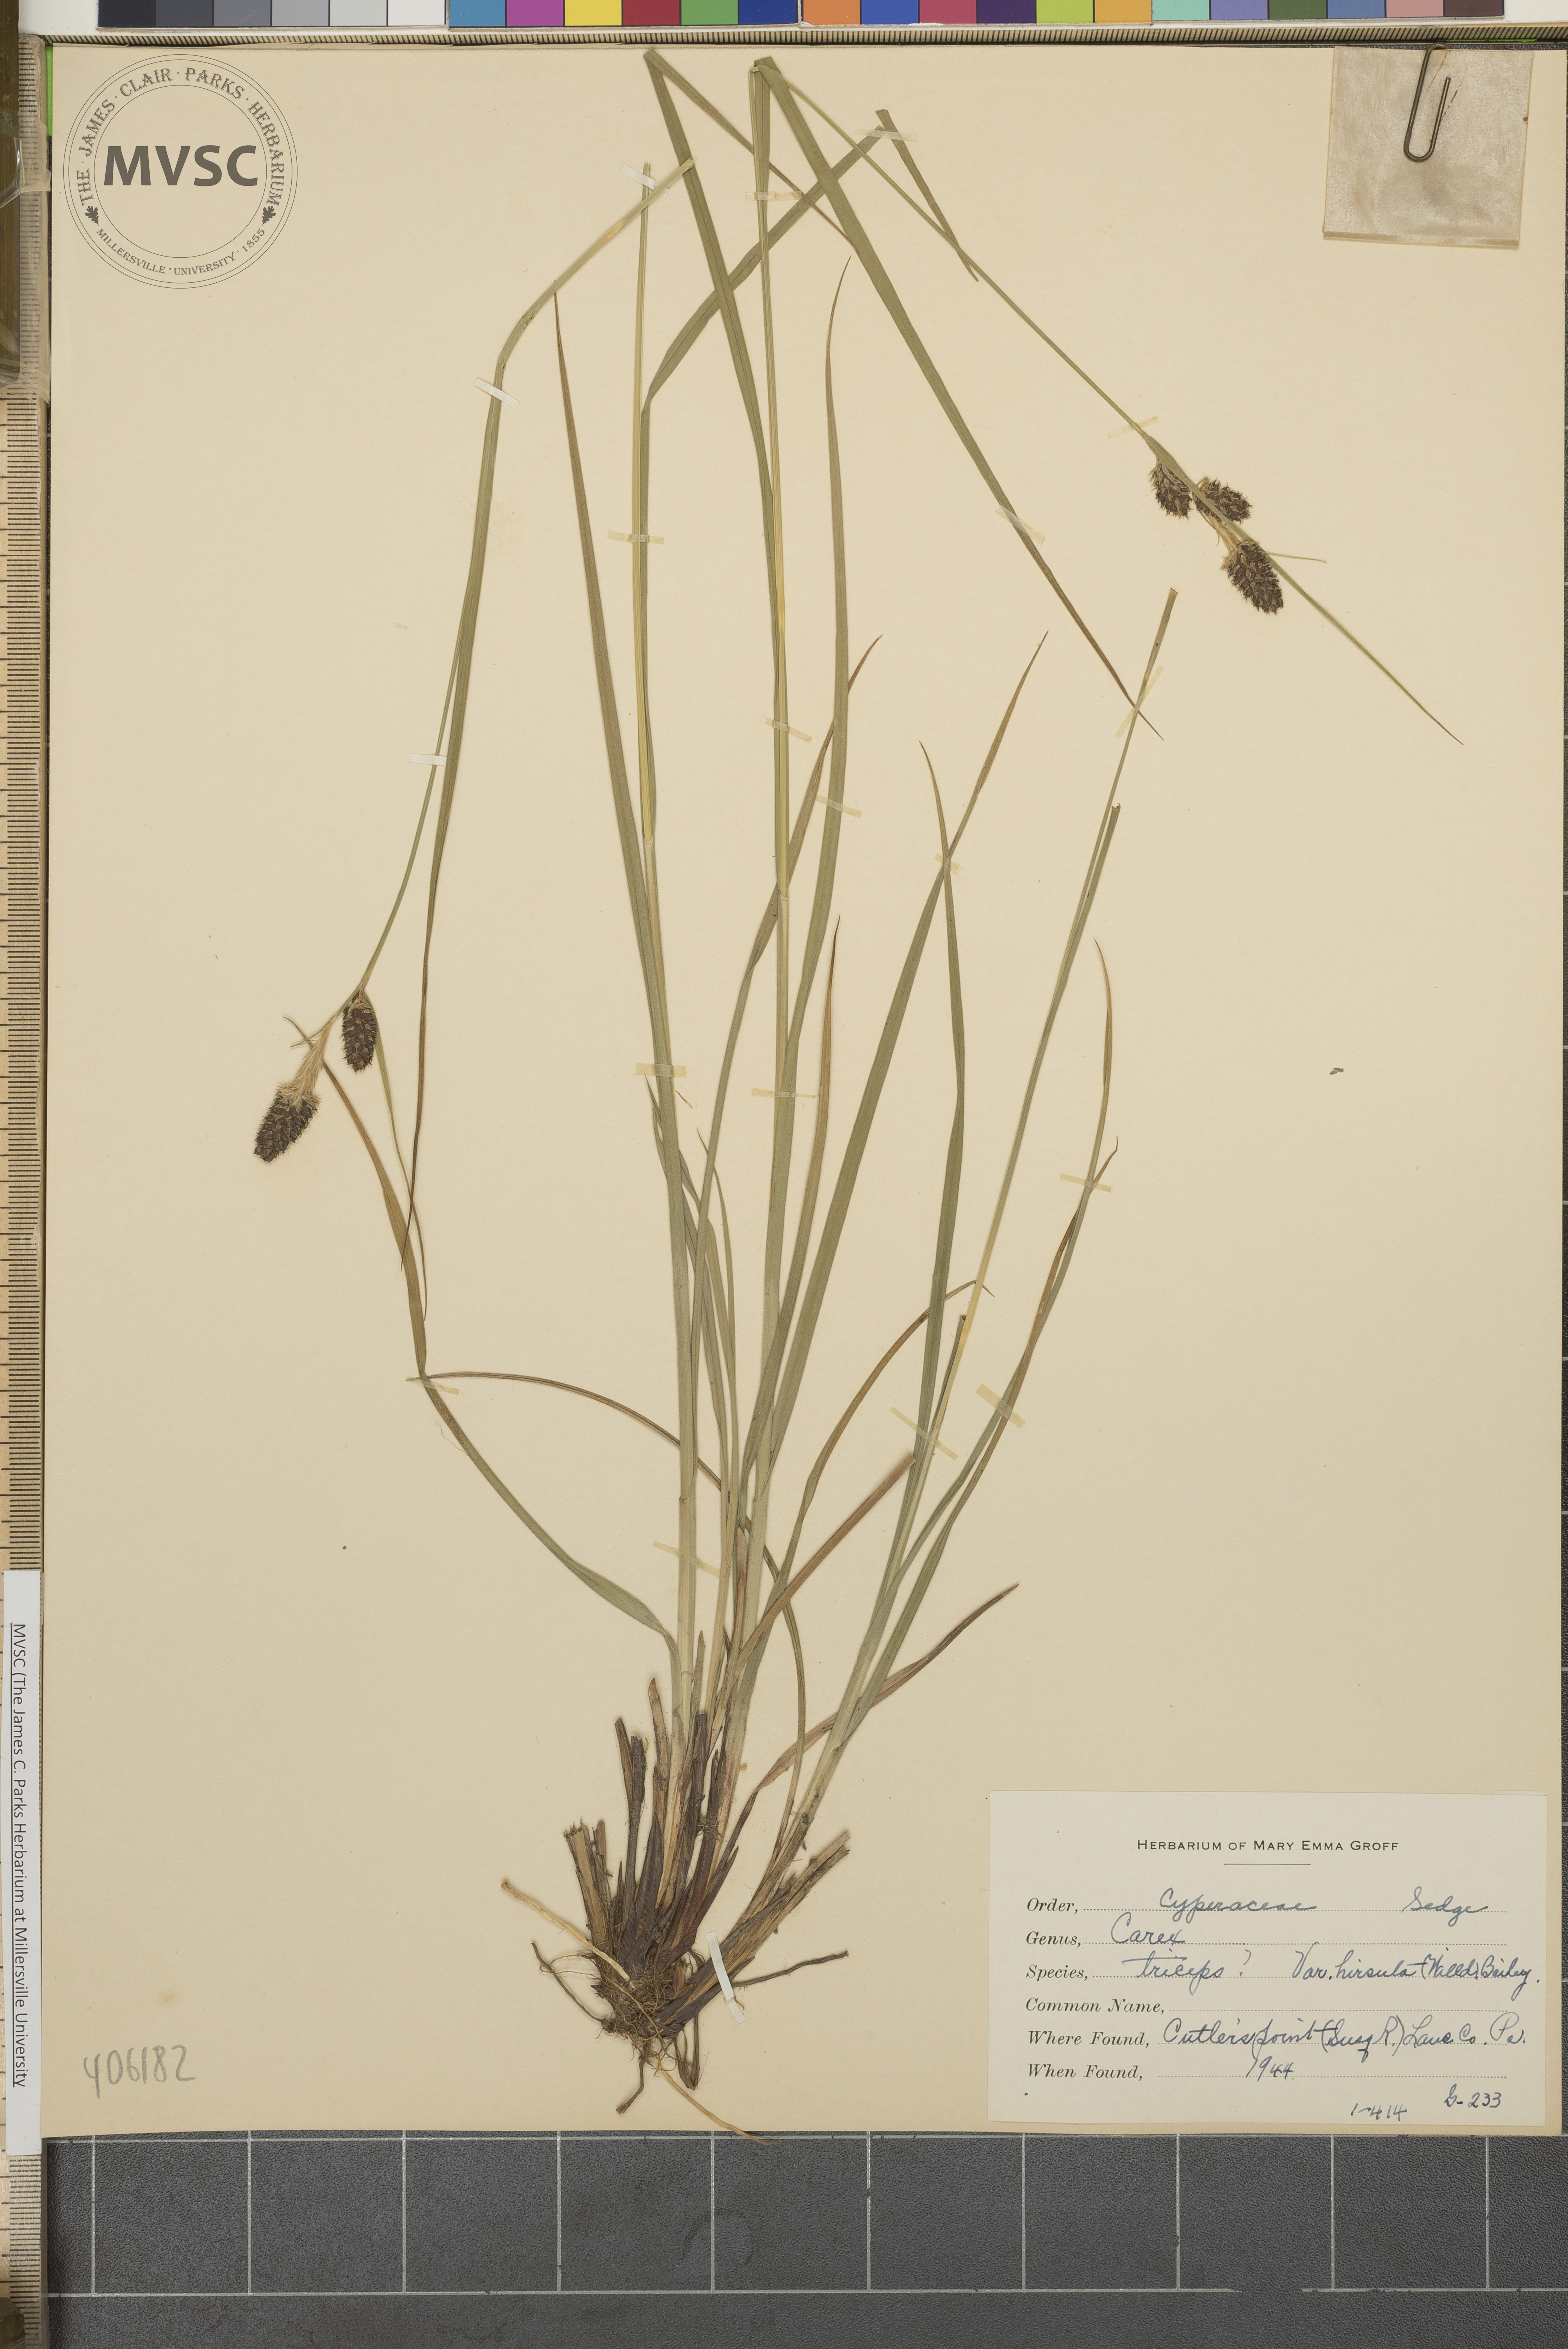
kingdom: Plantae
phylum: Tracheophyta
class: Liliopsida
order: Poales
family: Cyperaceae
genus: Carex
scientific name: Carex hirsutella
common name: Fuzzy wuzzy sedge
